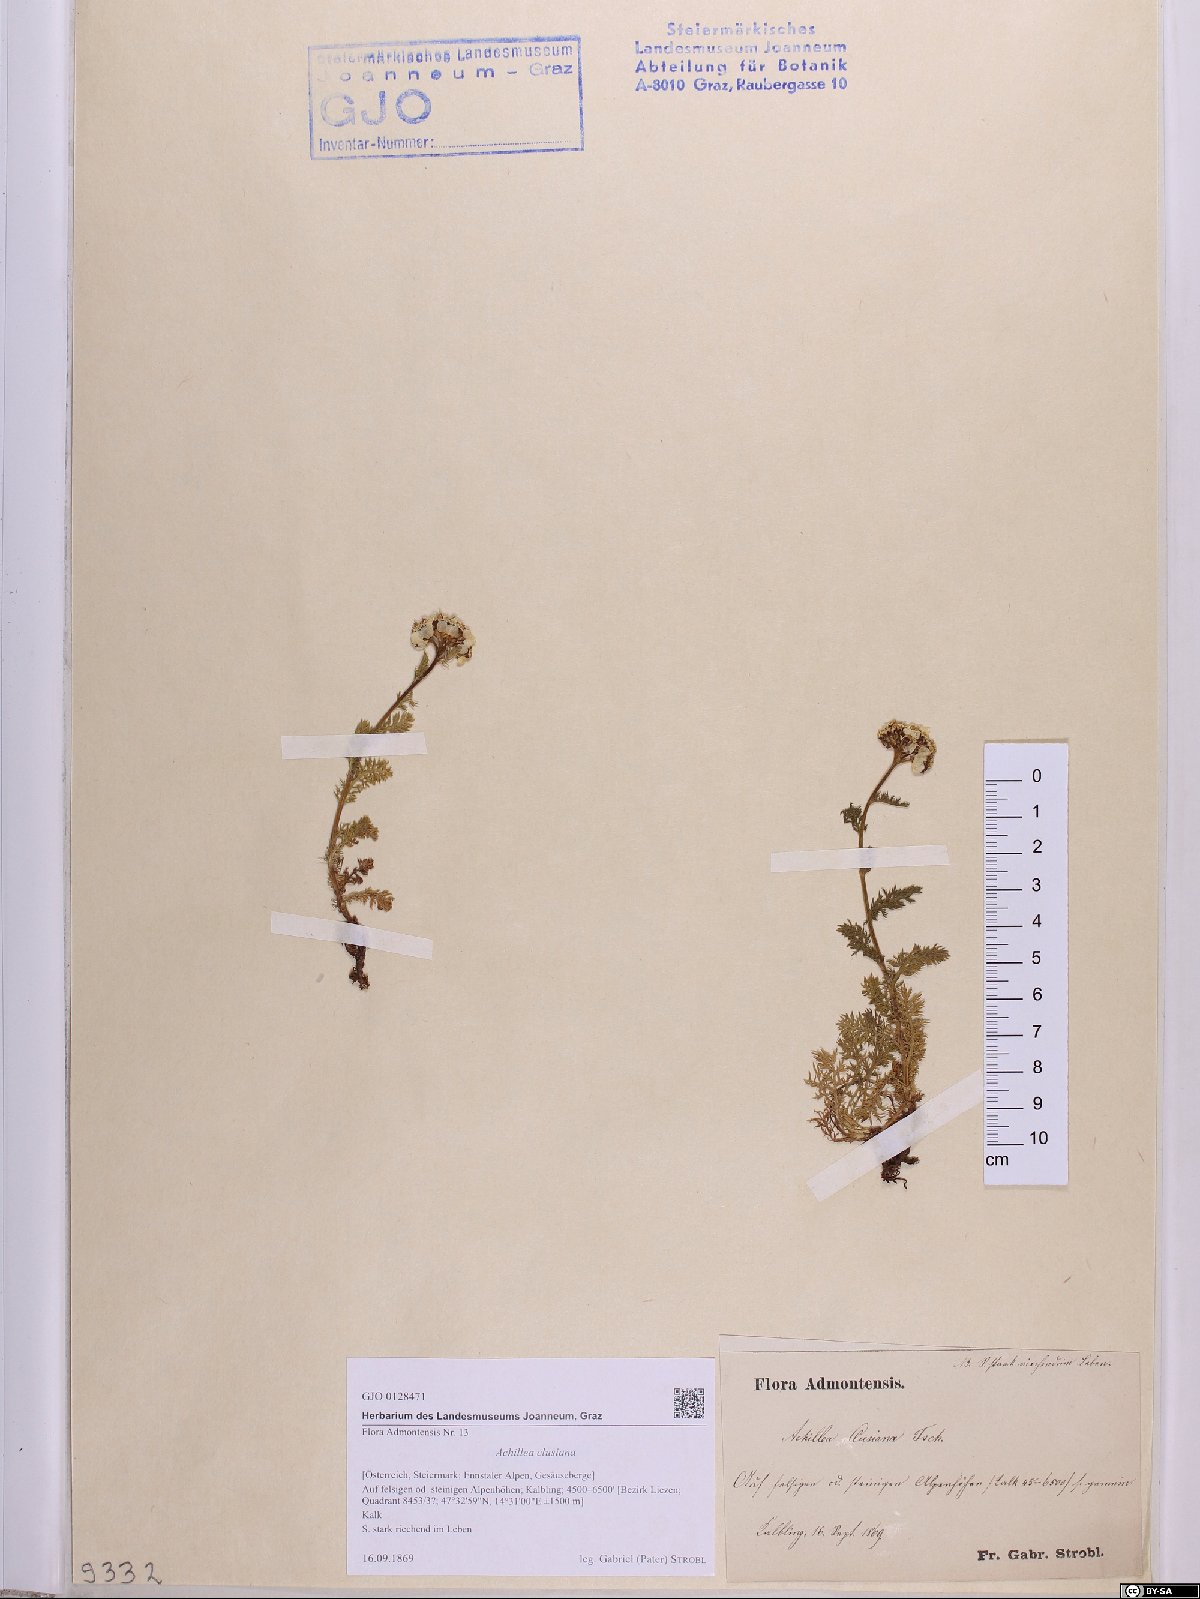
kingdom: Plantae
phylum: Tracheophyta
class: Magnoliopsida
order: Asterales
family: Asteraceae
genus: Achillea
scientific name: Achillea clusiana
